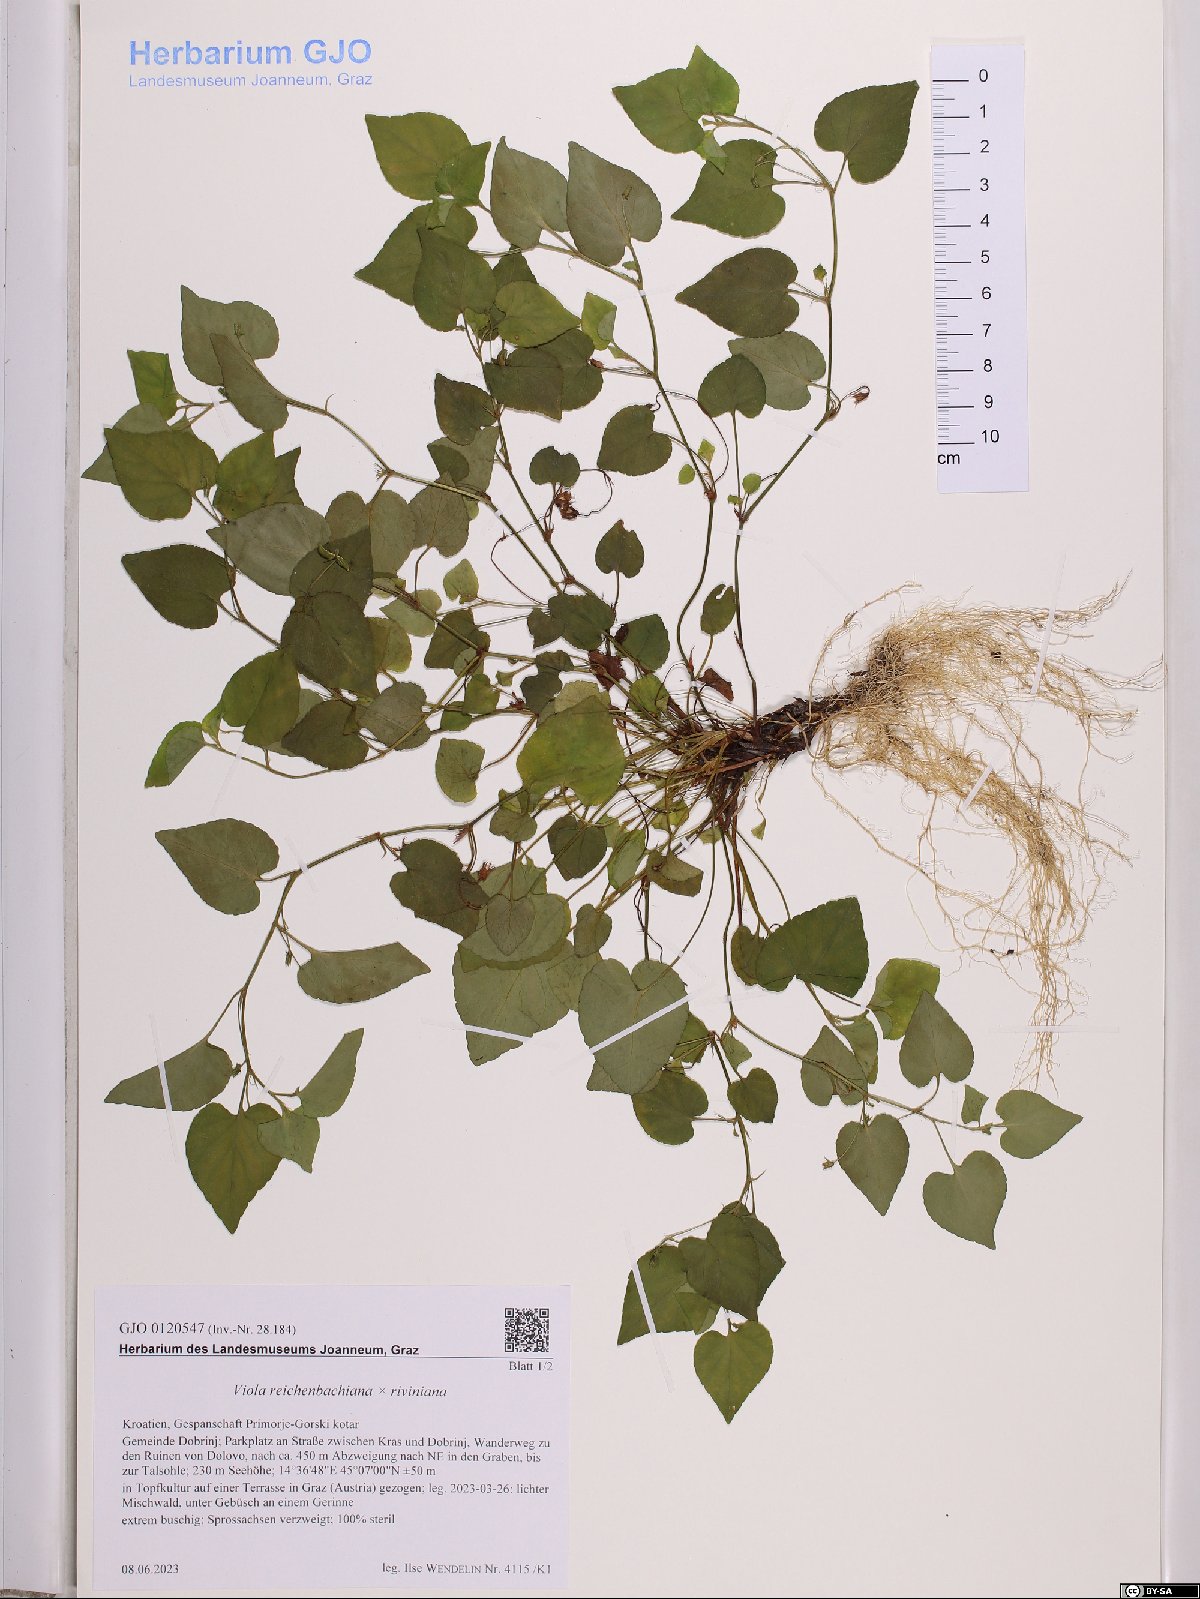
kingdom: Plantae
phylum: Tracheophyta
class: Magnoliopsida
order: Malpighiales
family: Violaceae
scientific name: Violaceae
